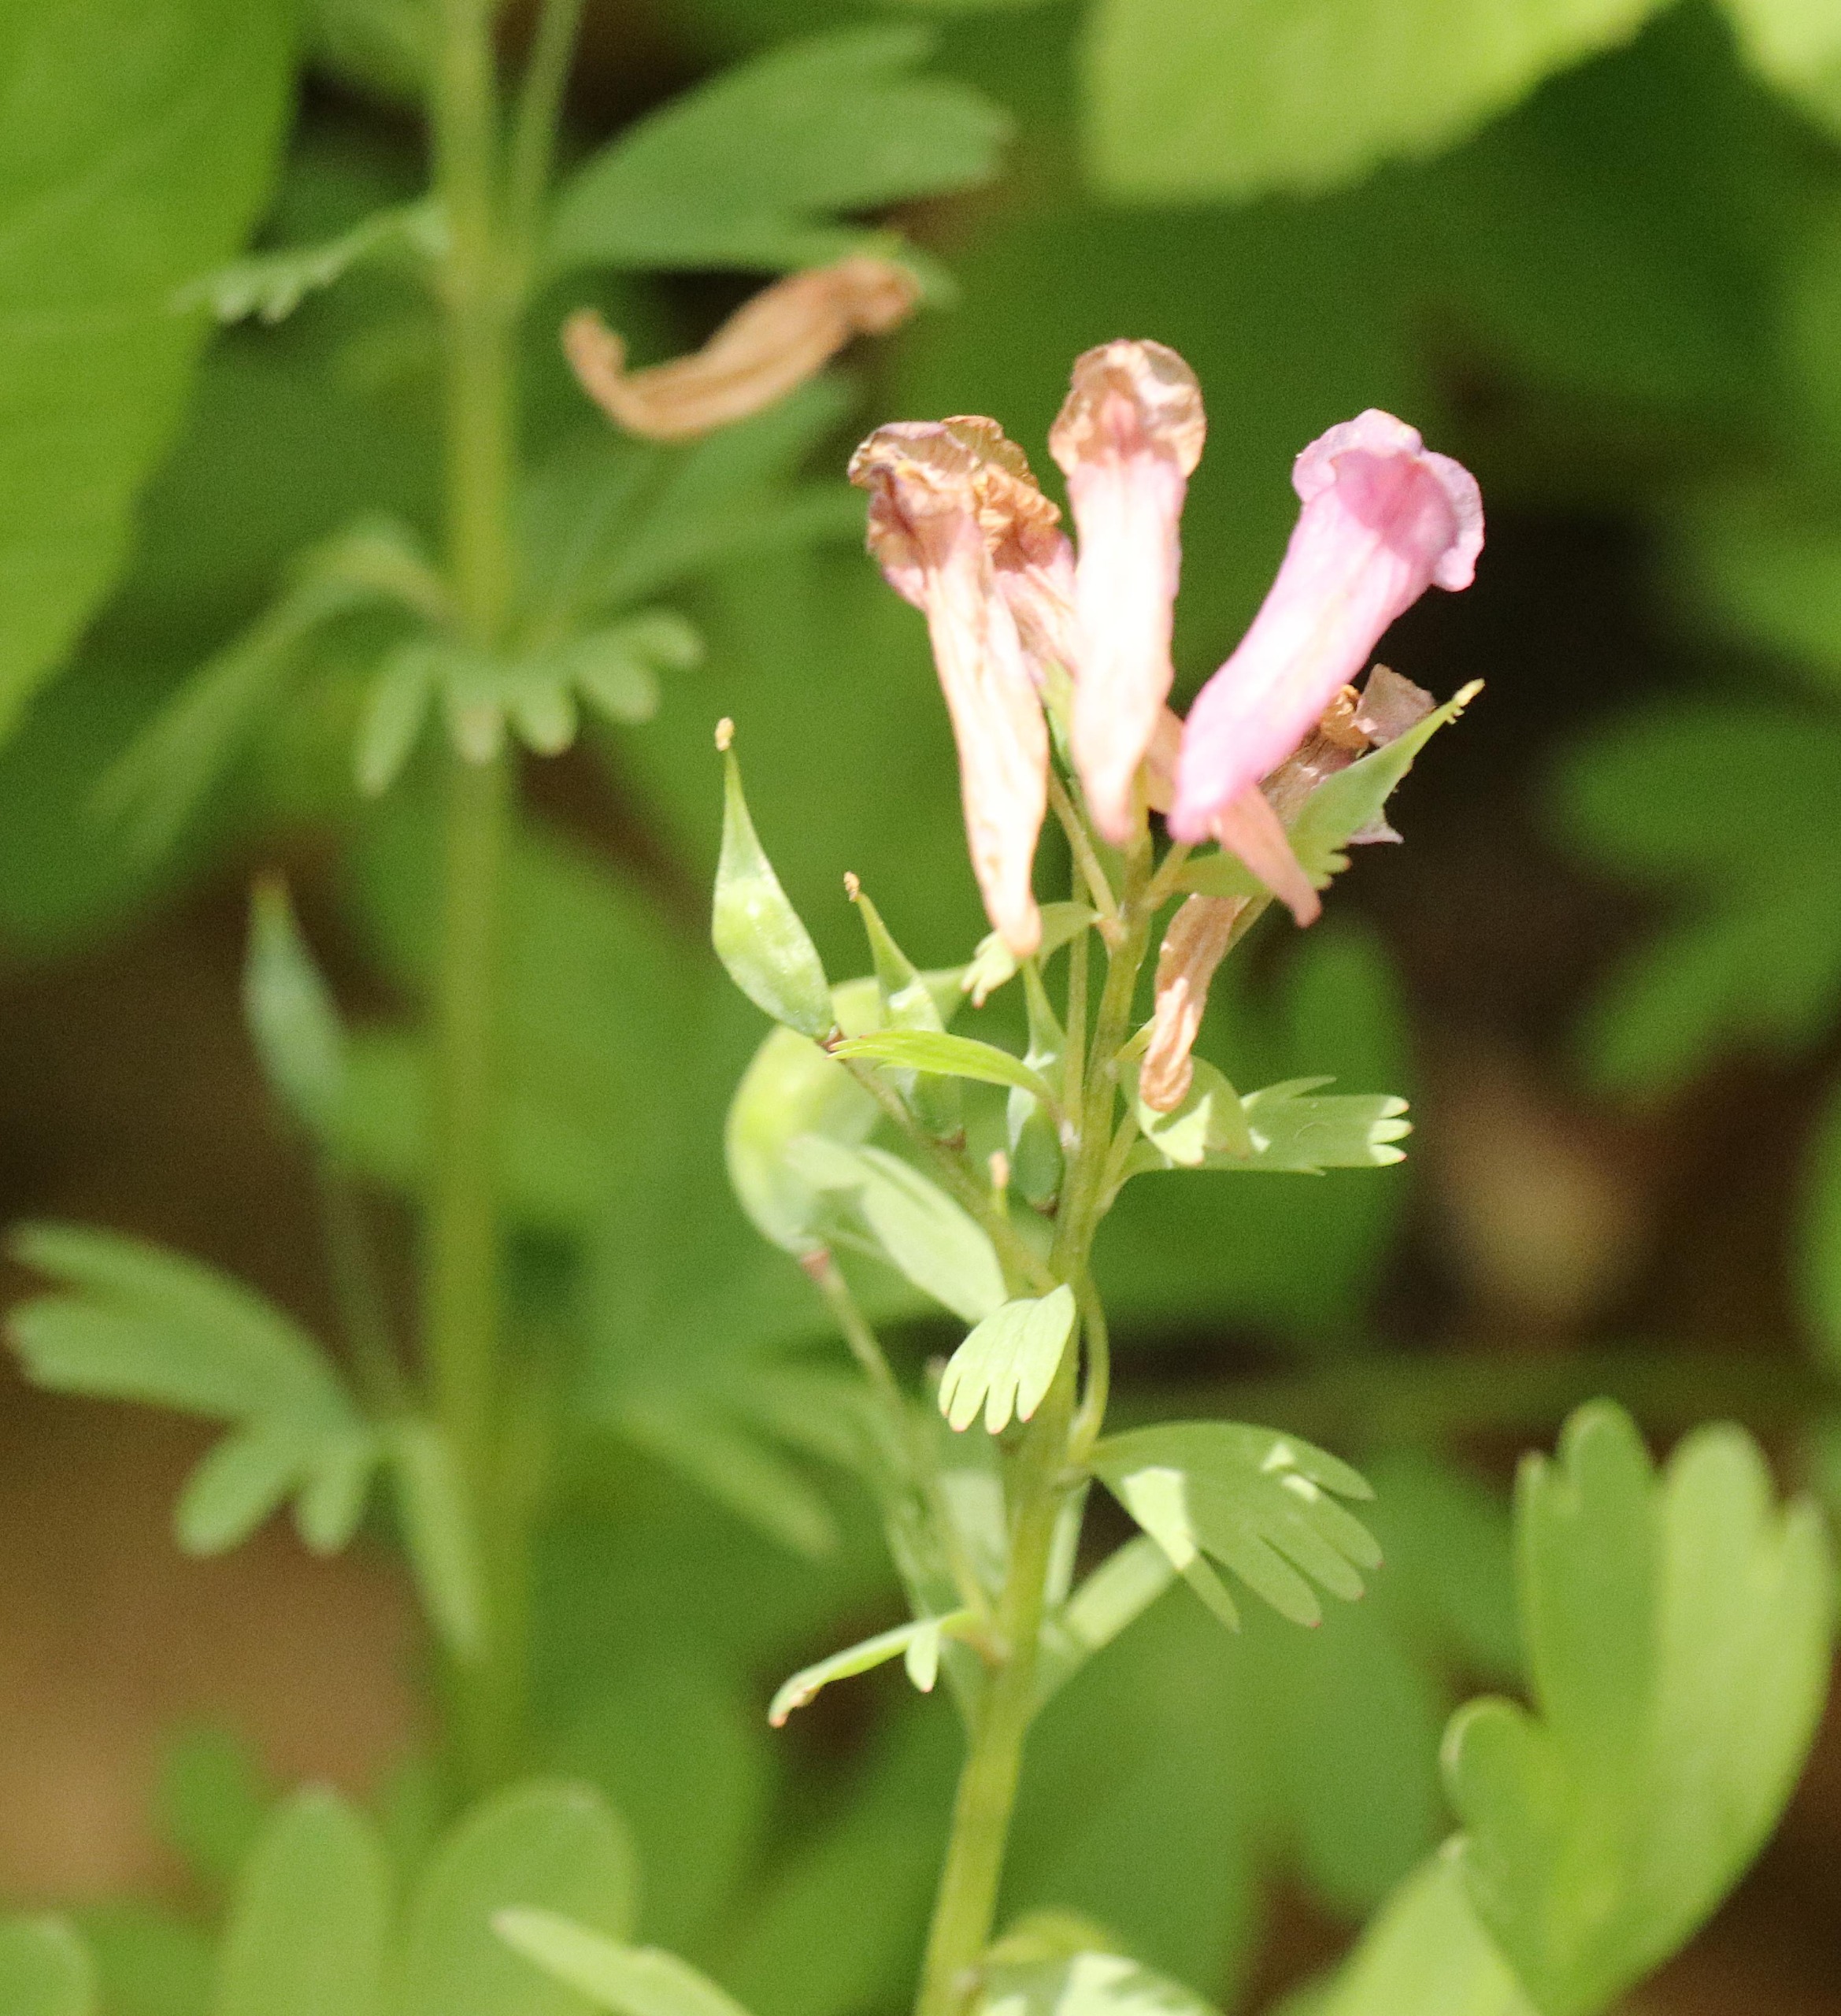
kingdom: Plantae
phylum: Tracheophyta
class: Magnoliopsida
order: Ranunculales
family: Papaveraceae
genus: Corydalis
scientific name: Corydalis solida
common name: Langstilket lærkespore
